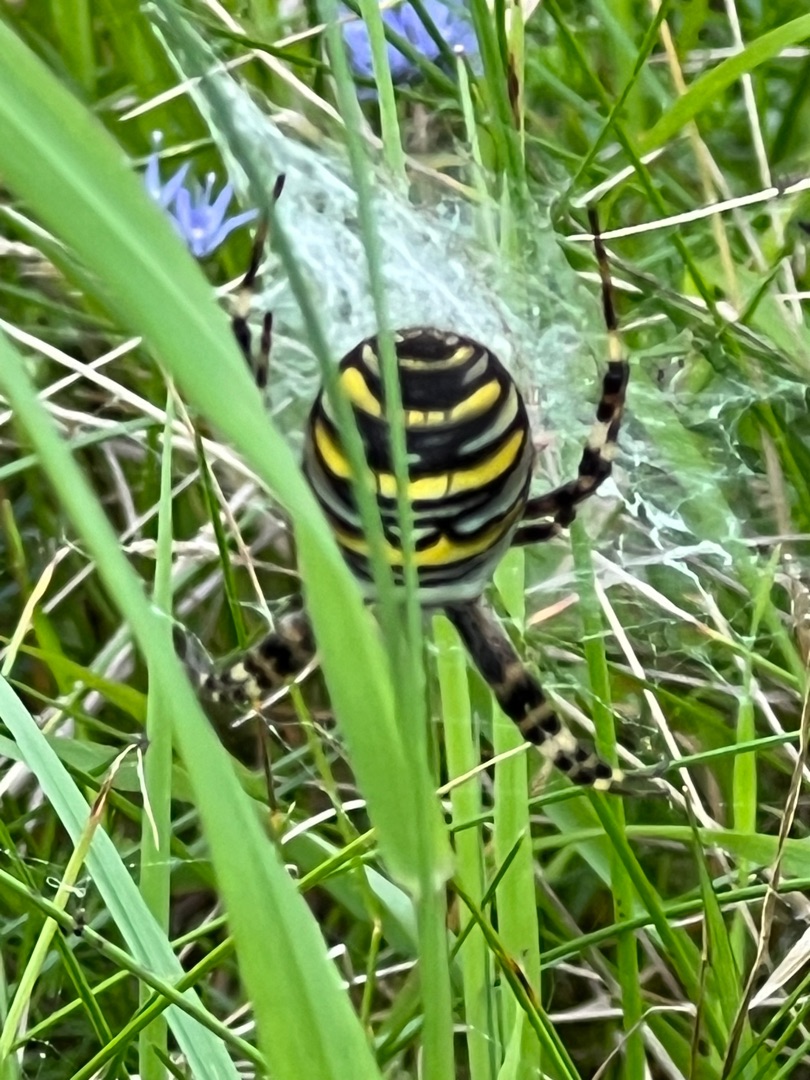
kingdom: Animalia
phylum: Arthropoda
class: Arachnida
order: Araneae
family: Araneidae
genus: Argiope
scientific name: Argiope bruennichi
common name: Hvepseedderkop
